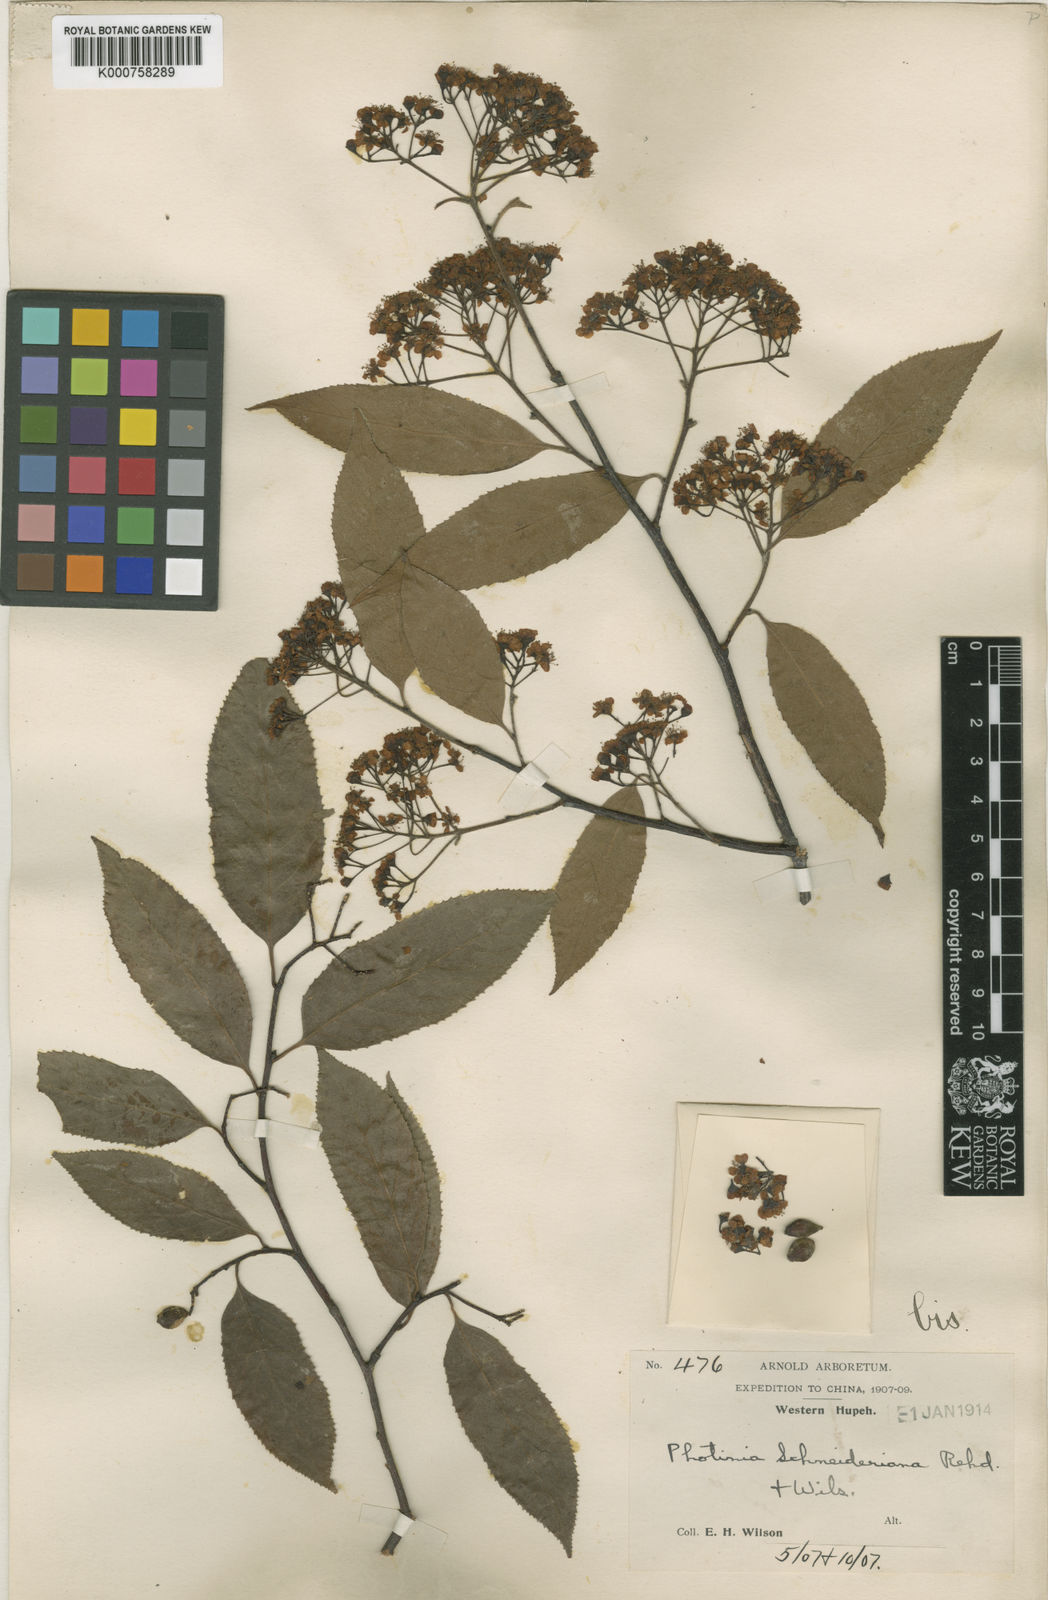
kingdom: Plantae
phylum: Tracheophyta
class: Magnoliopsida
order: Rosales
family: Rosaceae
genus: Pourthiaea
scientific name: Pourthiaea arguta
